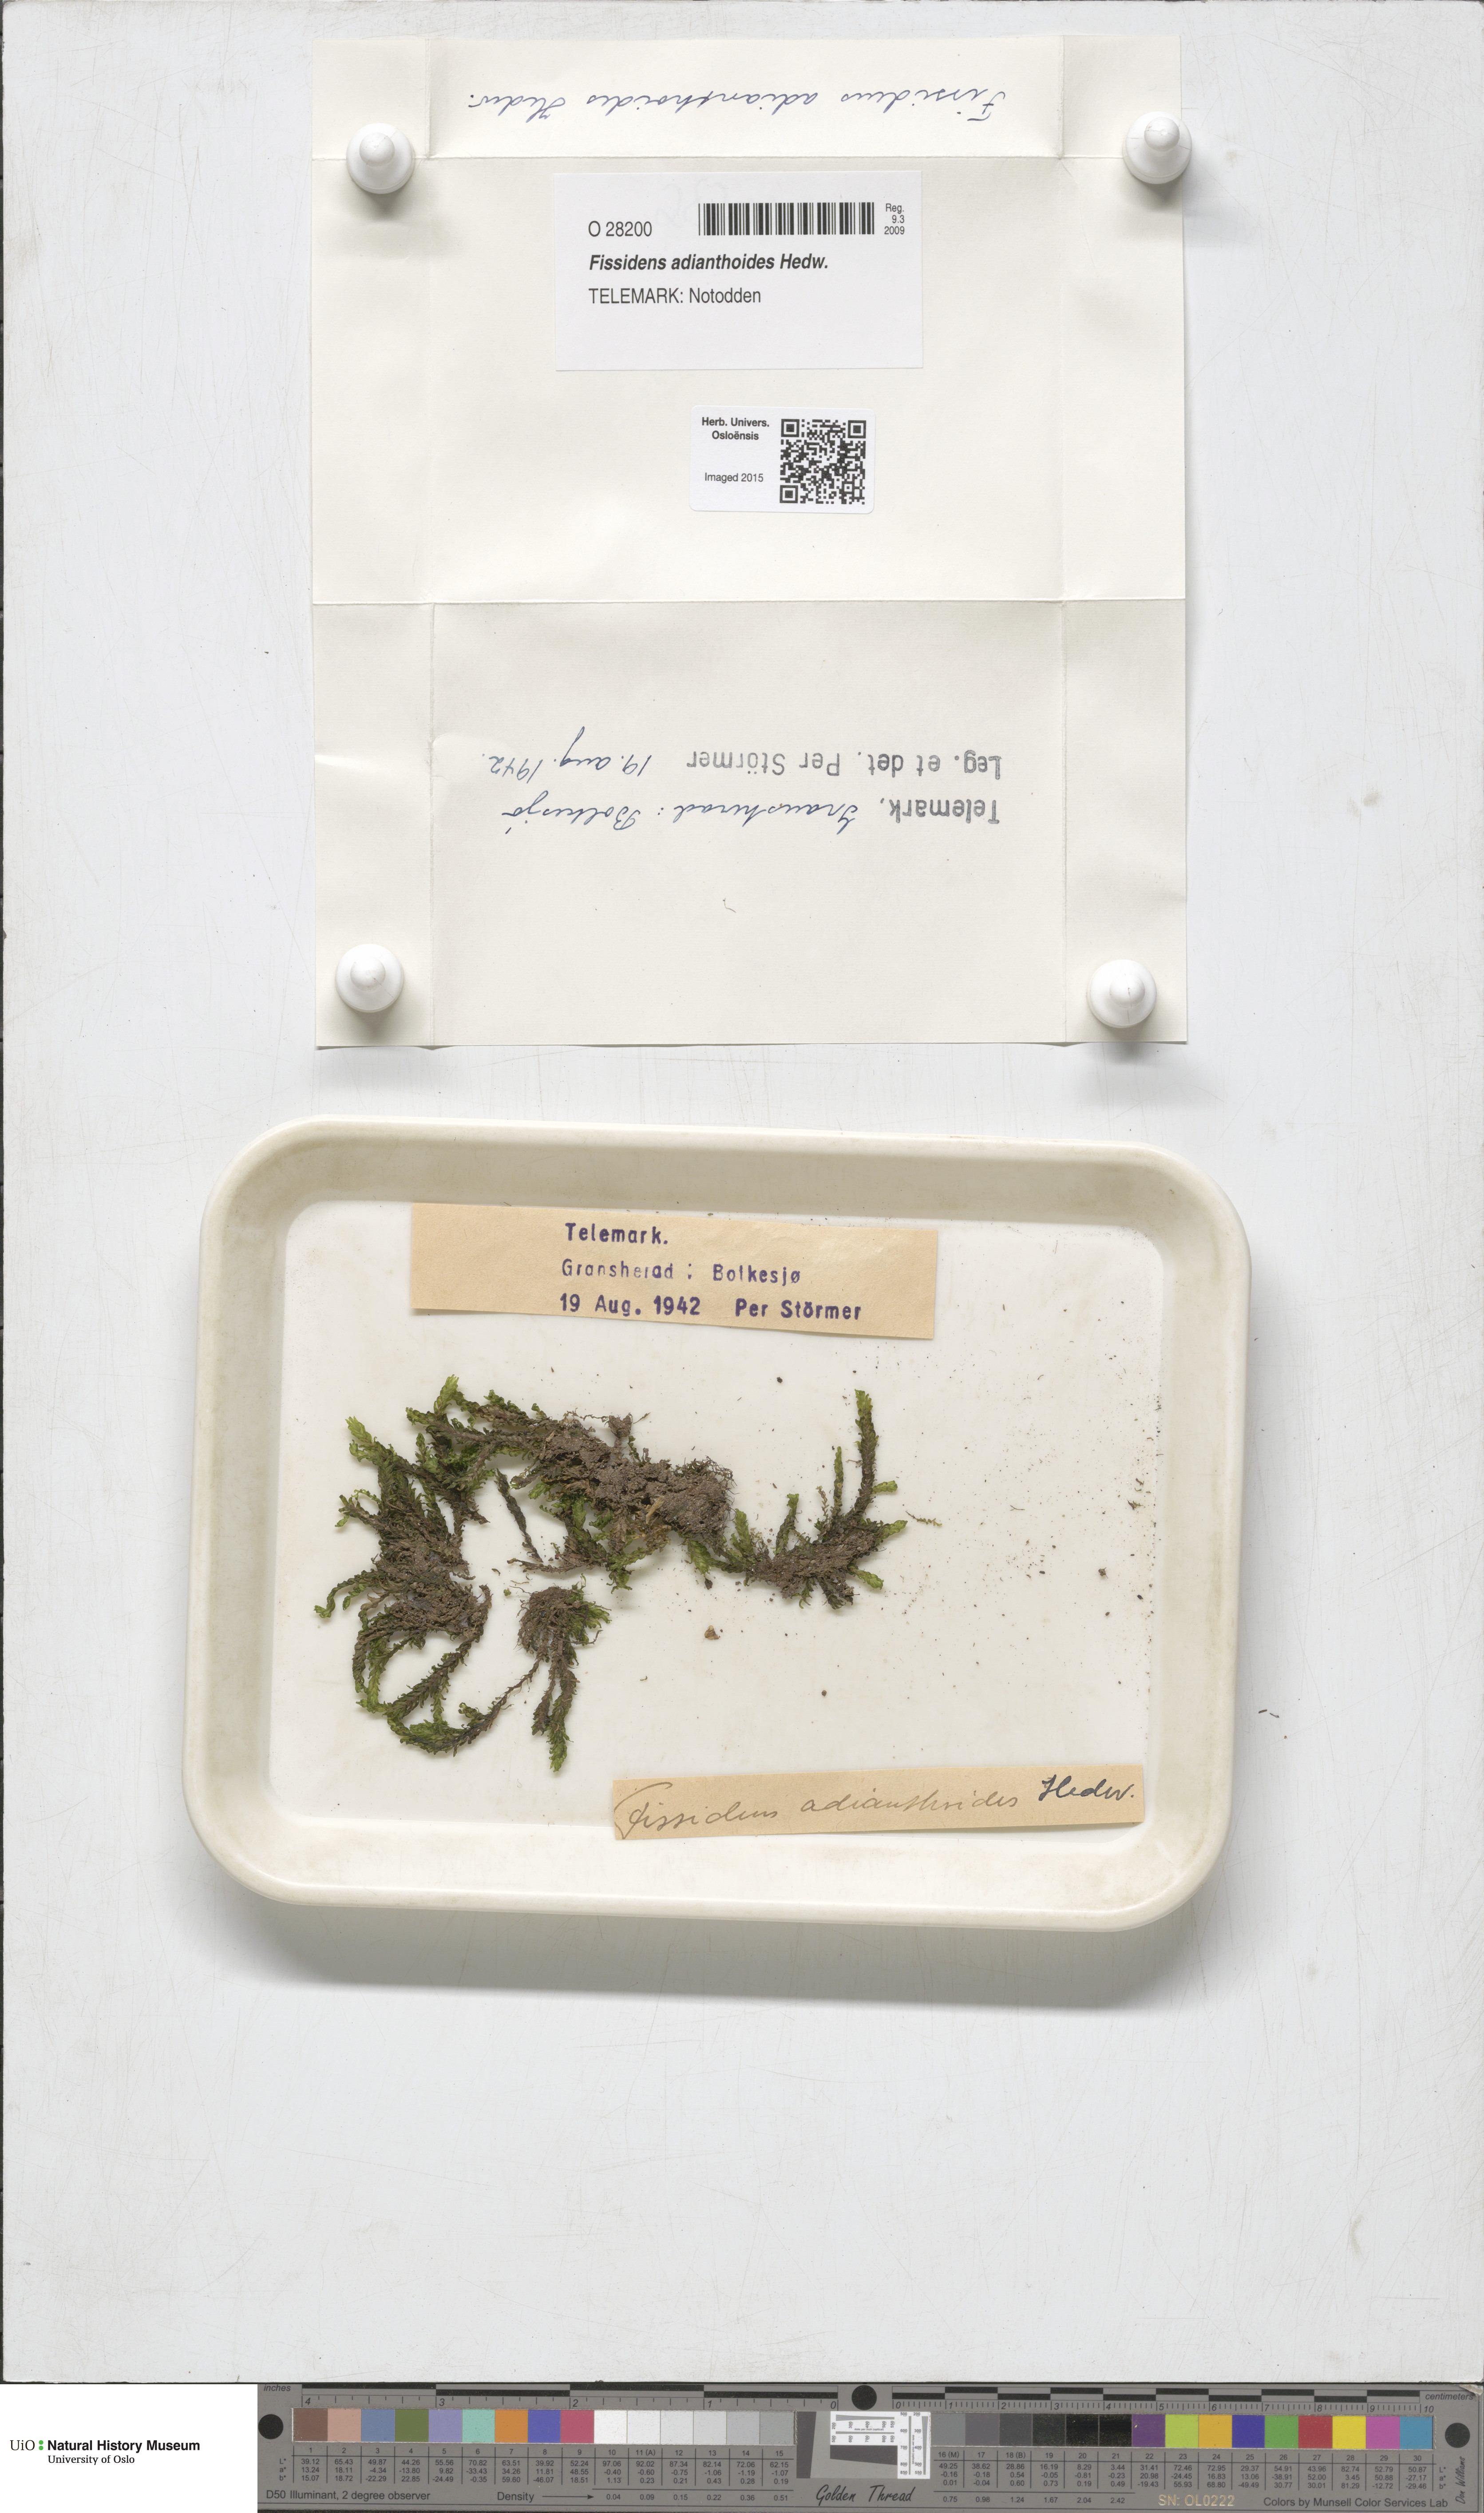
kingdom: Plantae
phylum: Bryophyta
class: Bryopsida
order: Dicranales
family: Fissidentaceae
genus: Fissidens
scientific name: Fissidens adianthoides
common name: Maidenhair pocket moss
